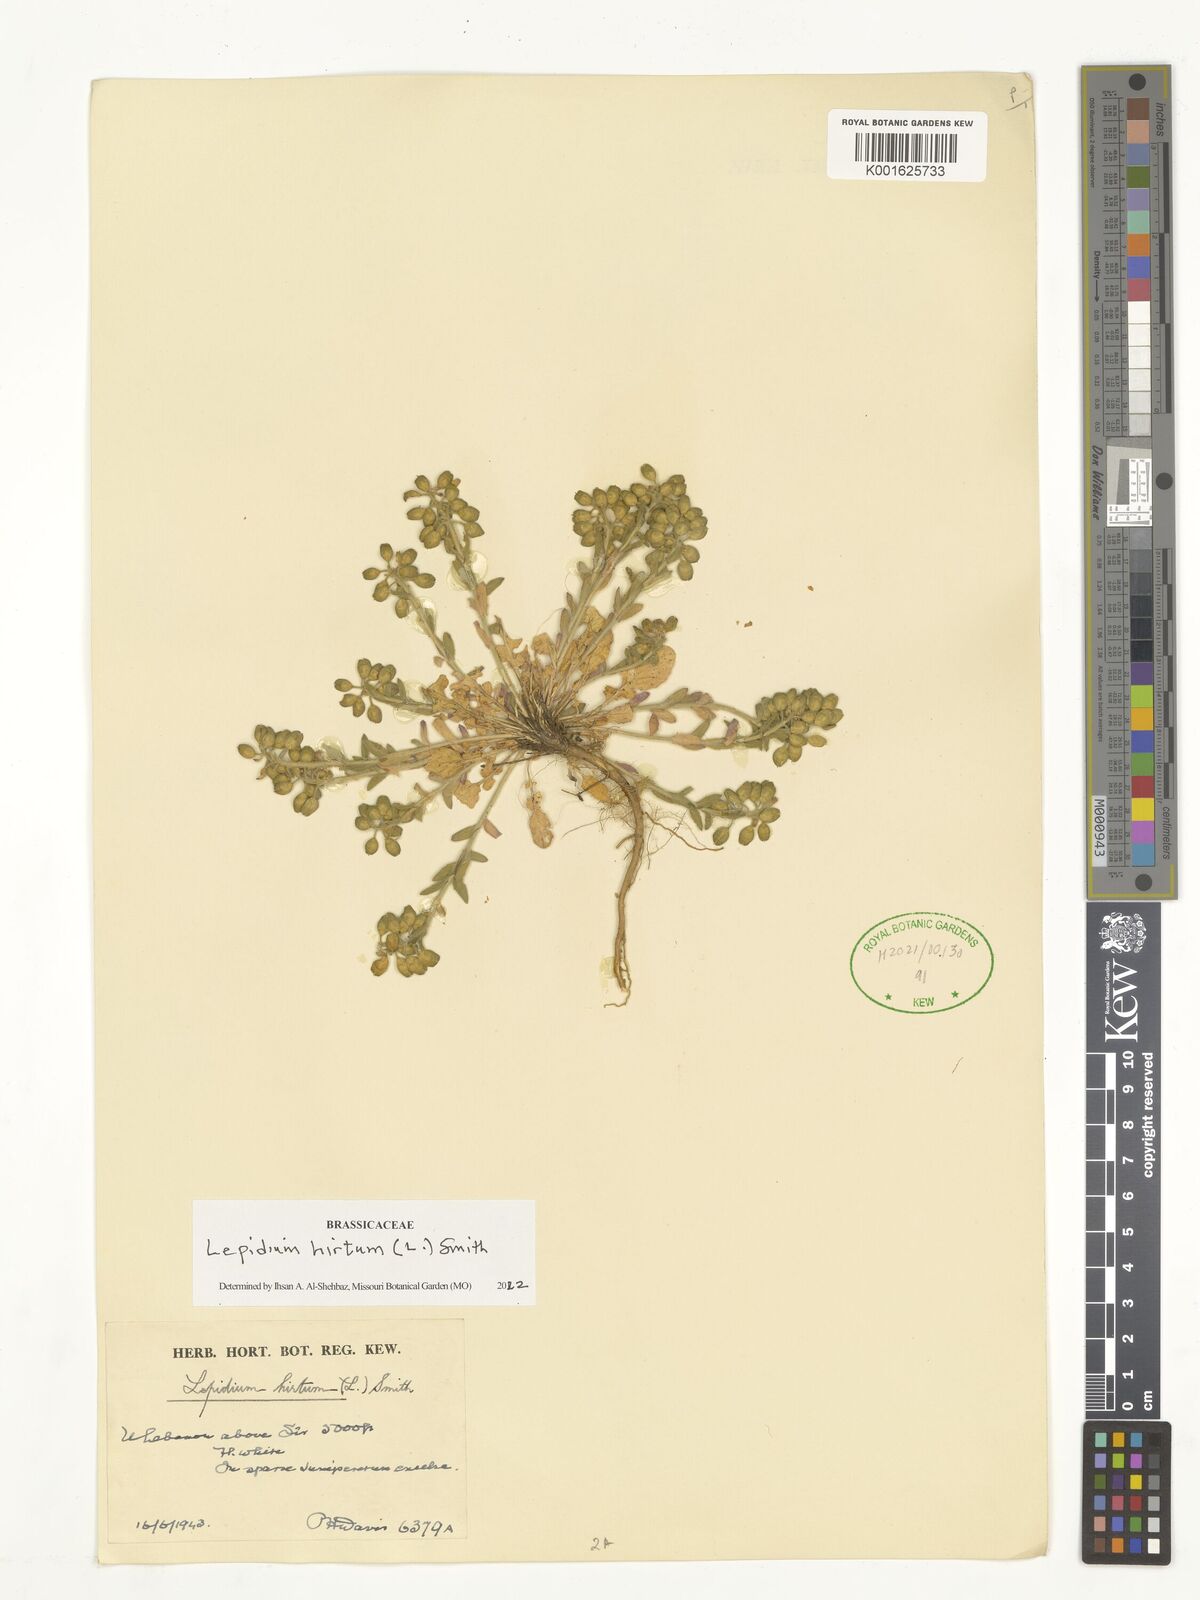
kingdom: Plantae
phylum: Tracheophyta
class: Magnoliopsida
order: Brassicales
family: Brassicaceae
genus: Lepidium
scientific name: Lepidium hirtum
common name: Mediterranean pepperweed
